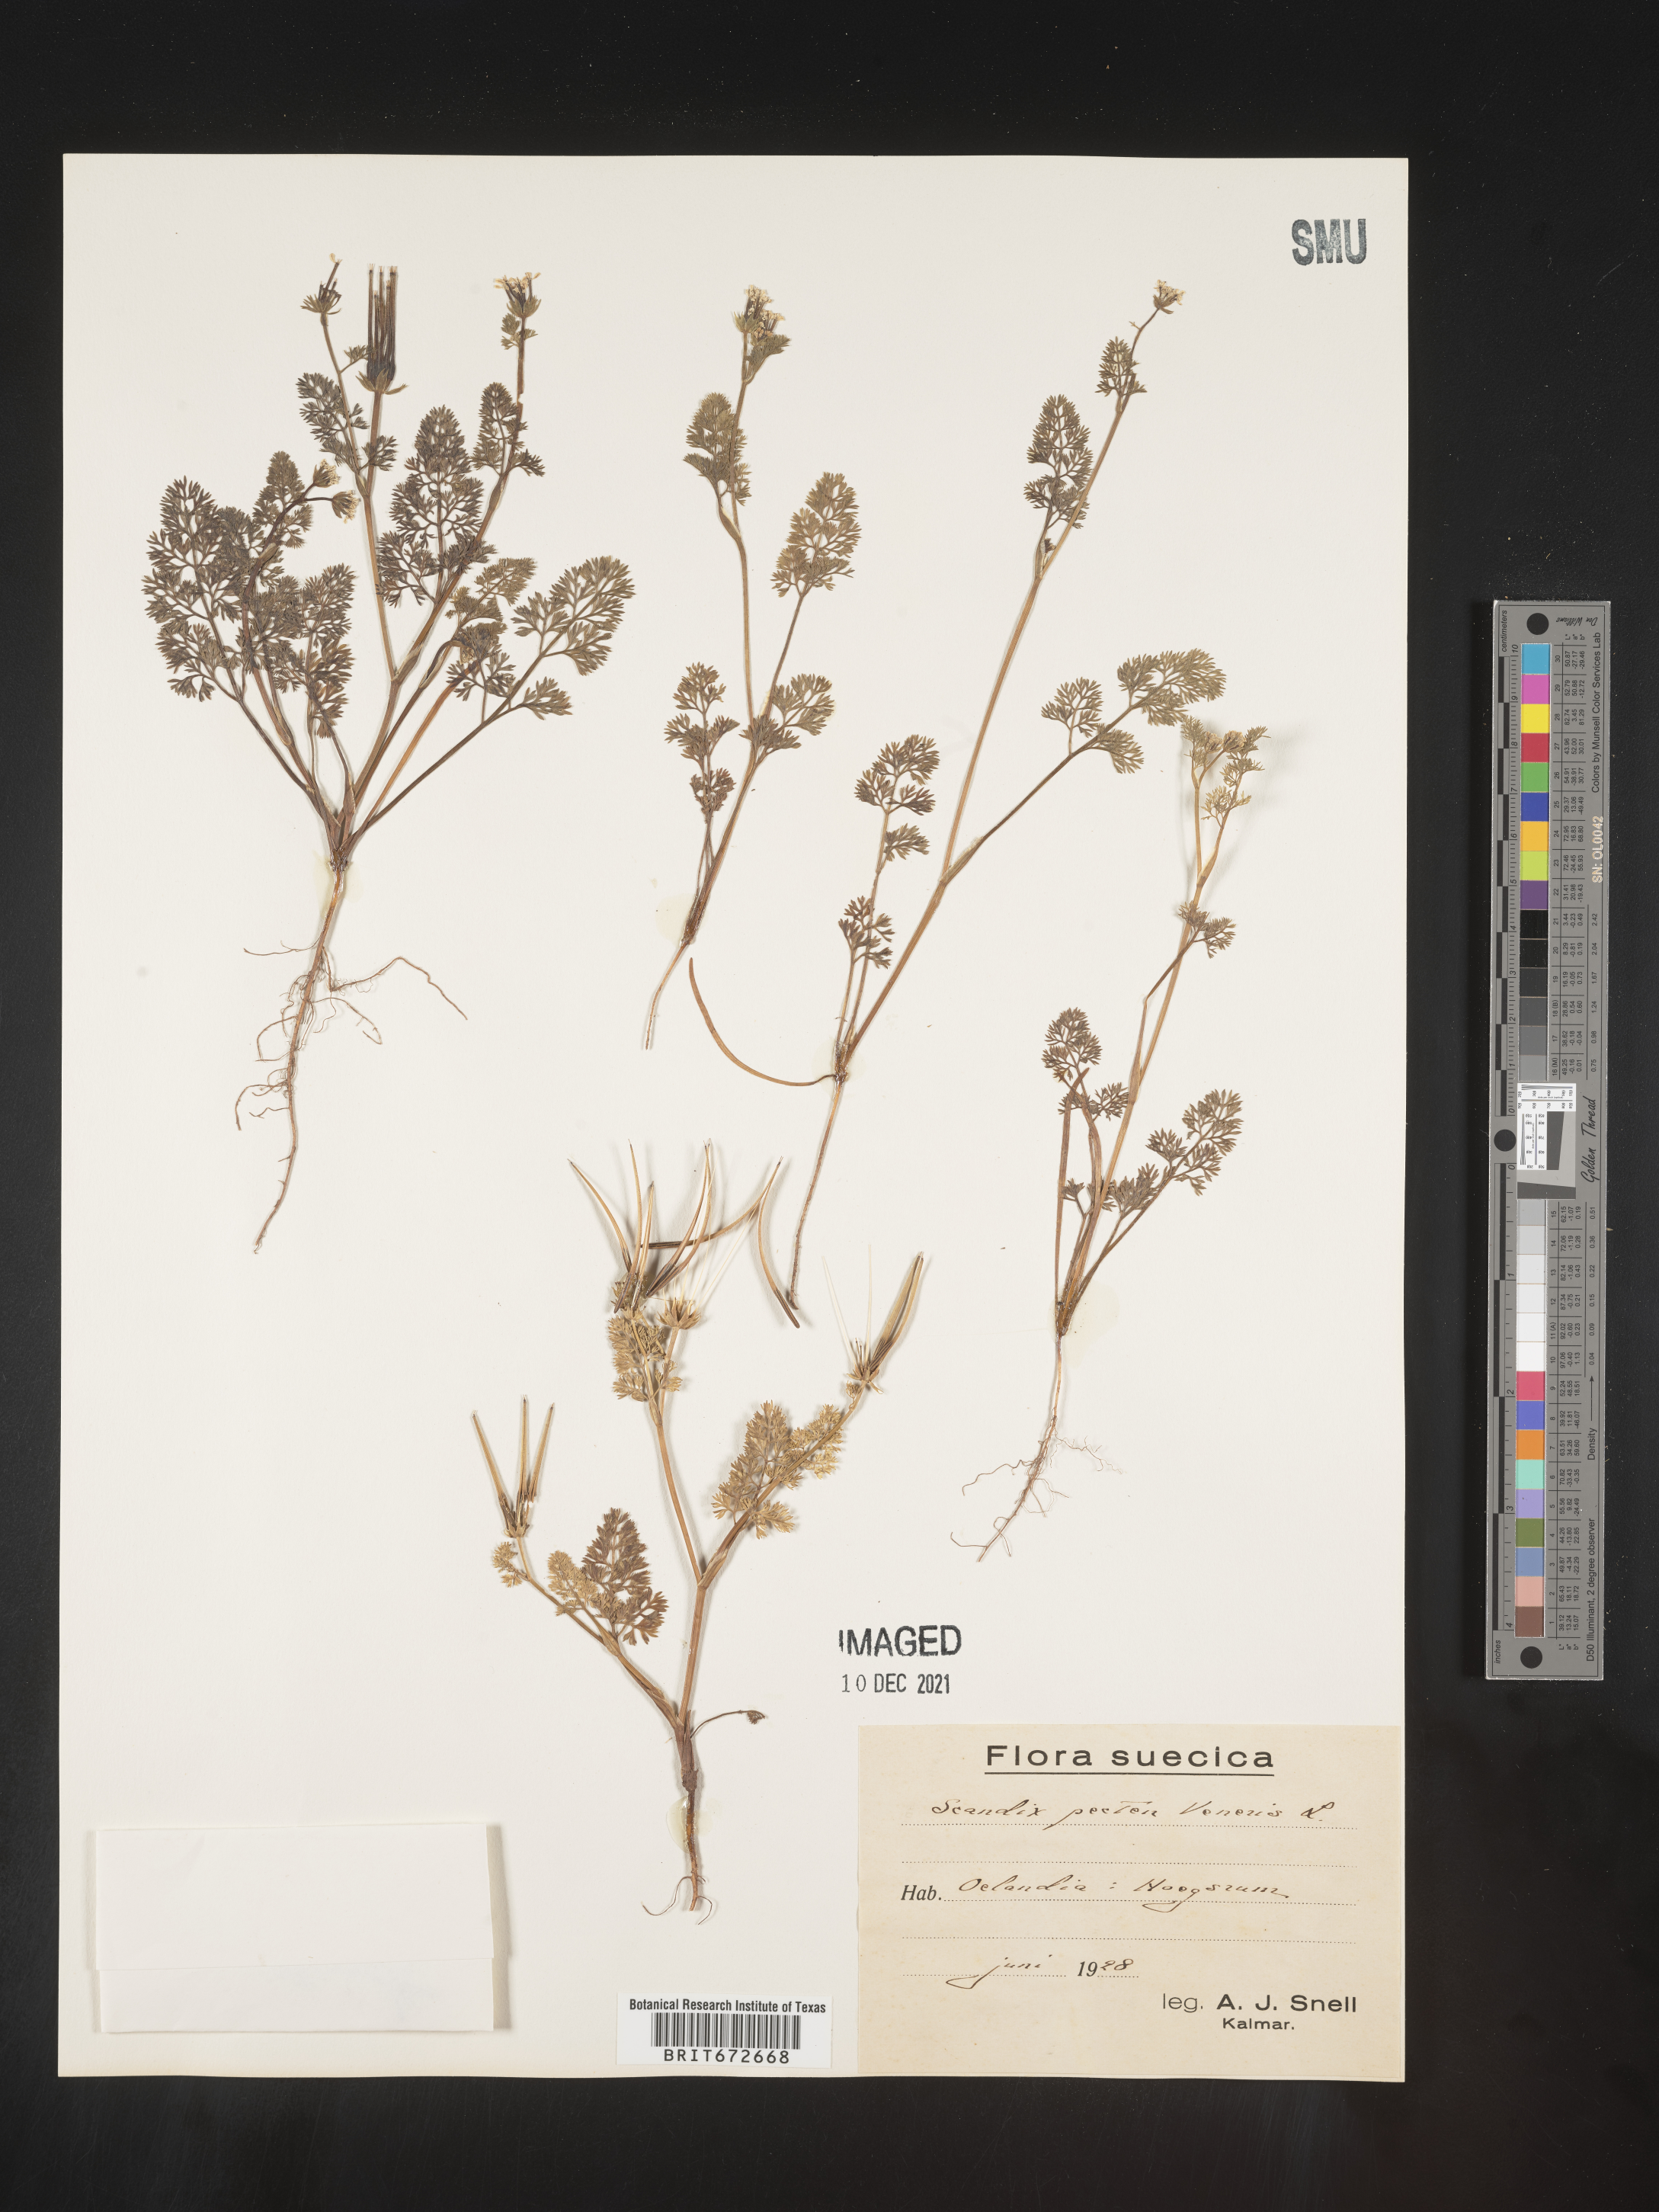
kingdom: Plantae
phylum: Tracheophyta
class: Magnoliopsida
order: Apiales
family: Apiaceae
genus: Scandix
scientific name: Scandix
